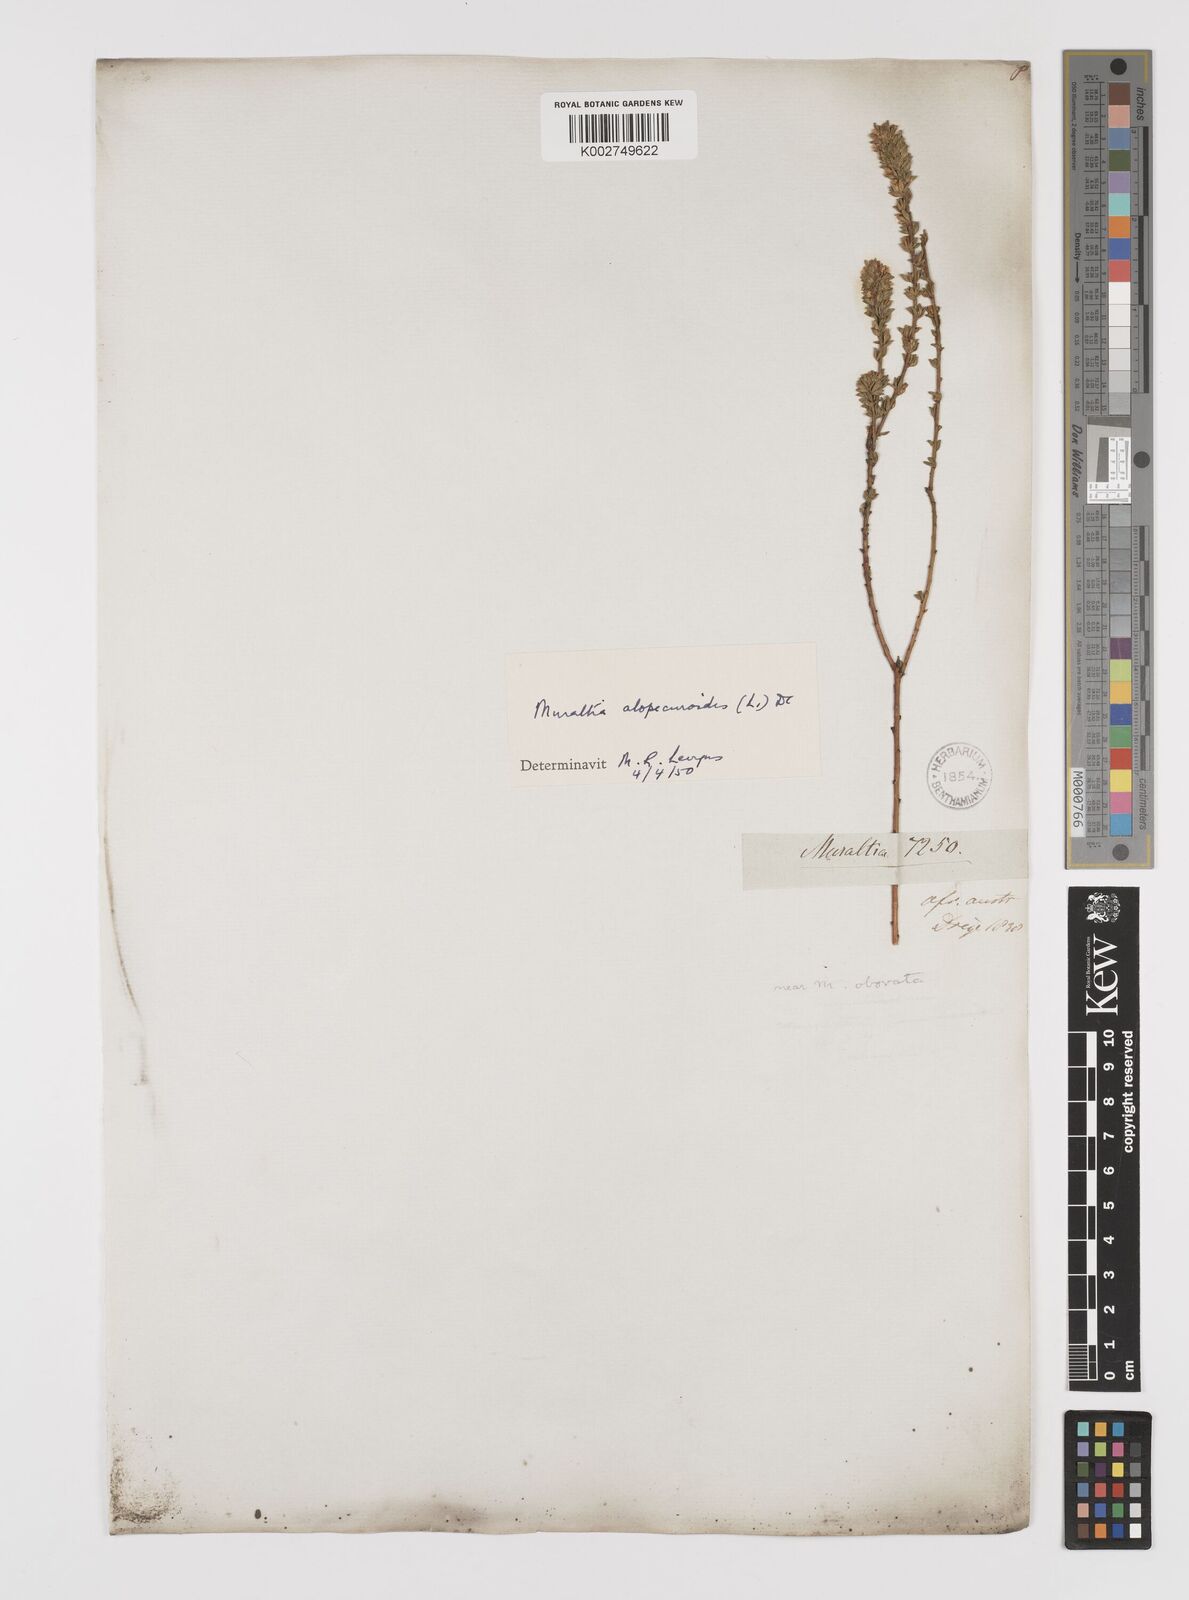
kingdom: Plantae
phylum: Tracheophyta
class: Magnoliopsida
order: Fabales
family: Polygalaceae
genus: Muraltia
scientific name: Muraltia alopecuroides
